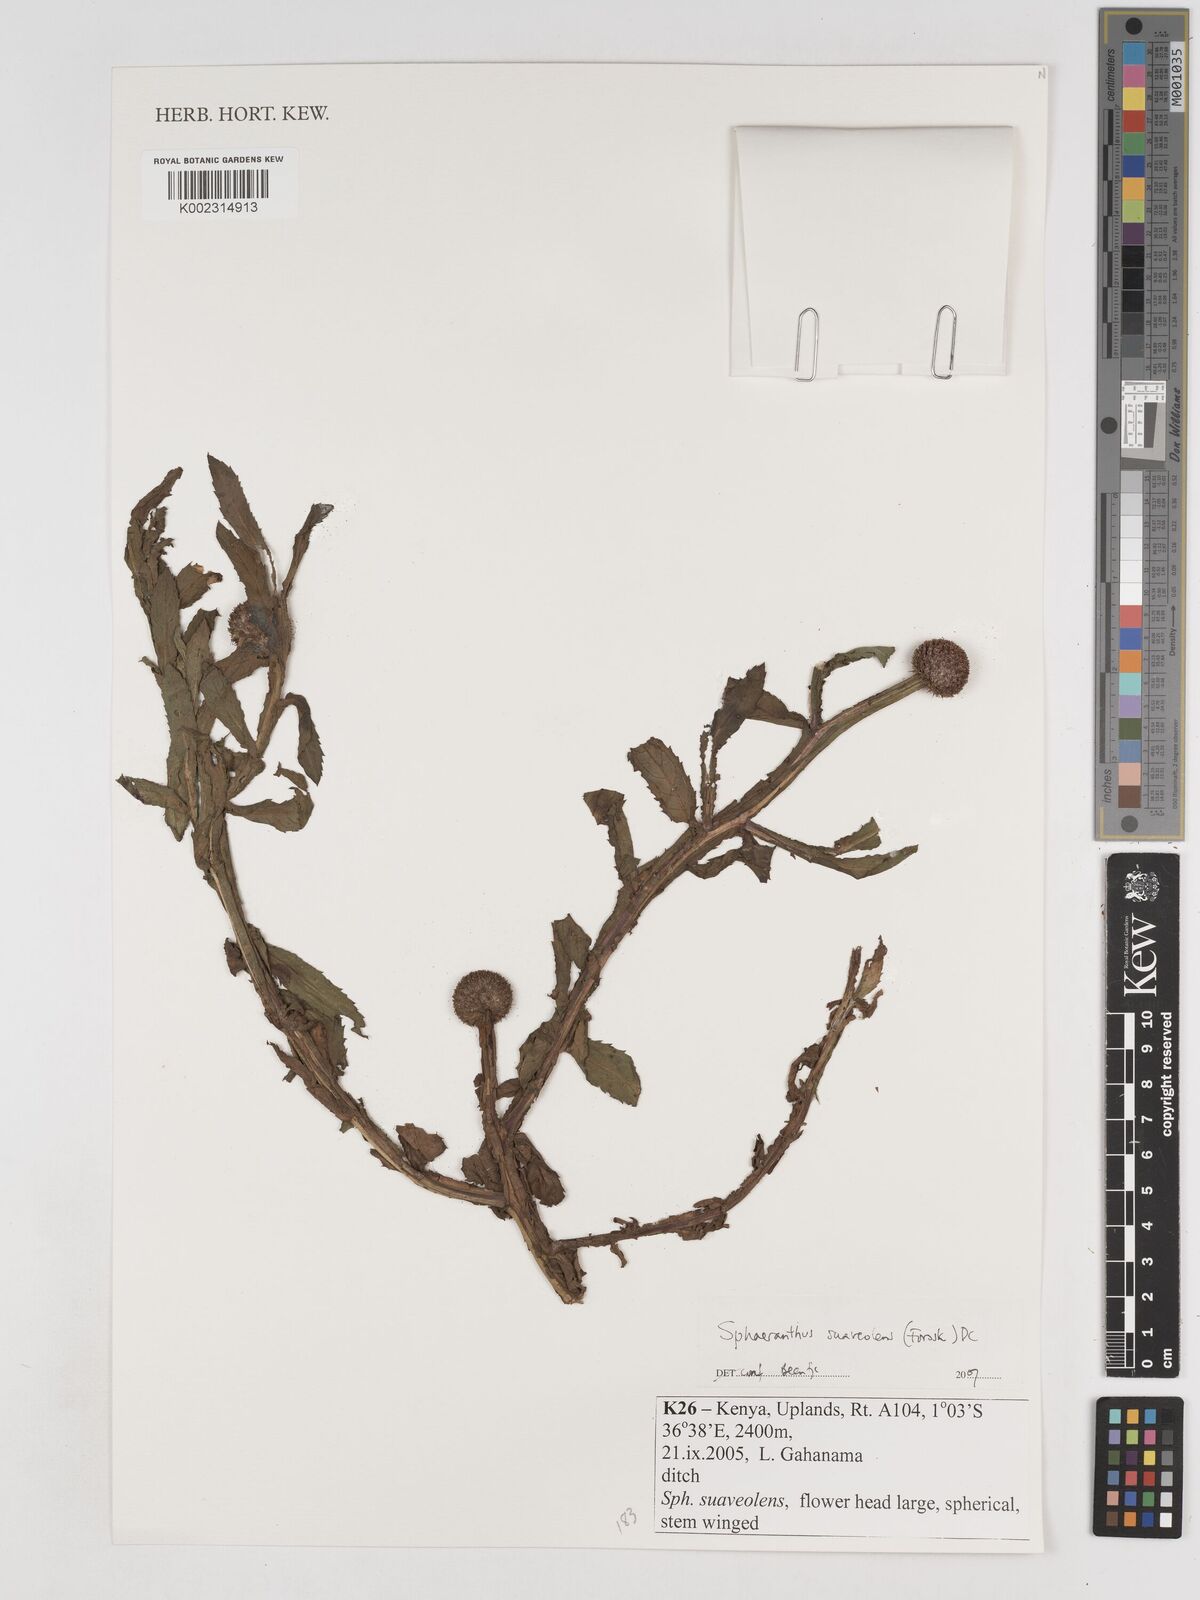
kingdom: Plantae
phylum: Tracheophyta
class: Magnoliopsida
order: Asterales
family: Asteraceae
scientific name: Asteraceae
